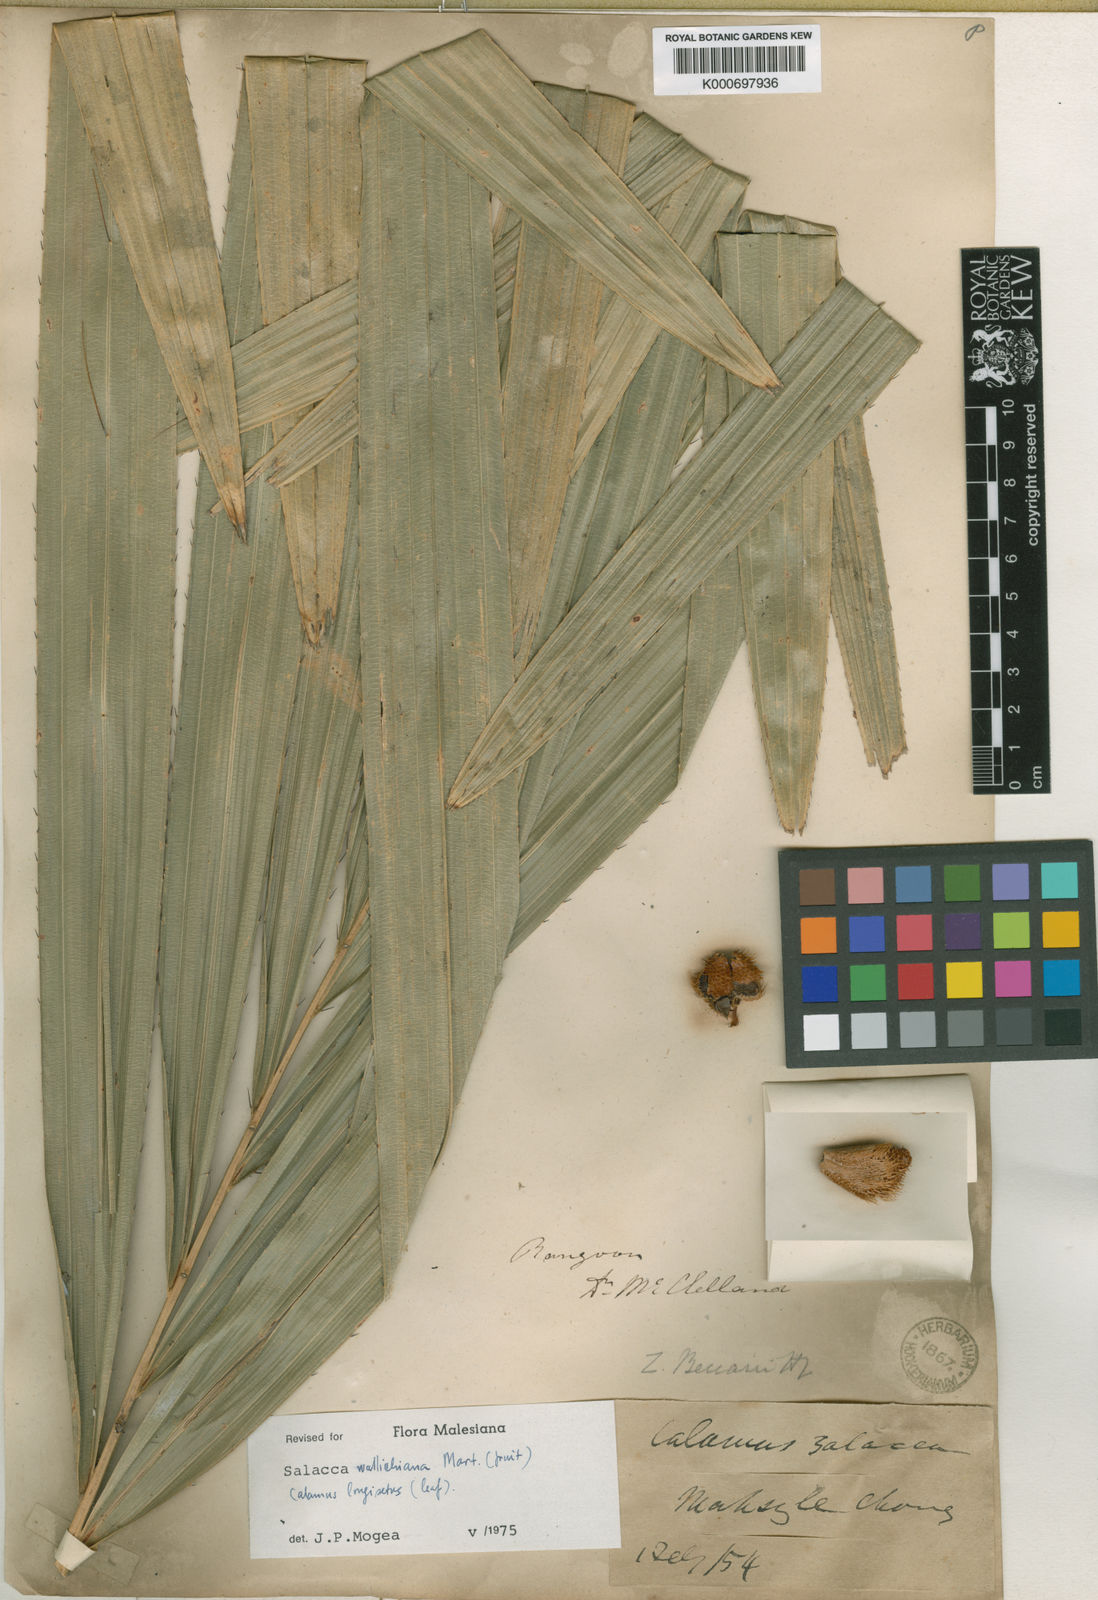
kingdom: Plantae
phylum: Tracheophyta
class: Liliopsida
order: Arecales
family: Arecaceae
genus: Salacca
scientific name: Salacca wallichiana
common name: Rakum palm
